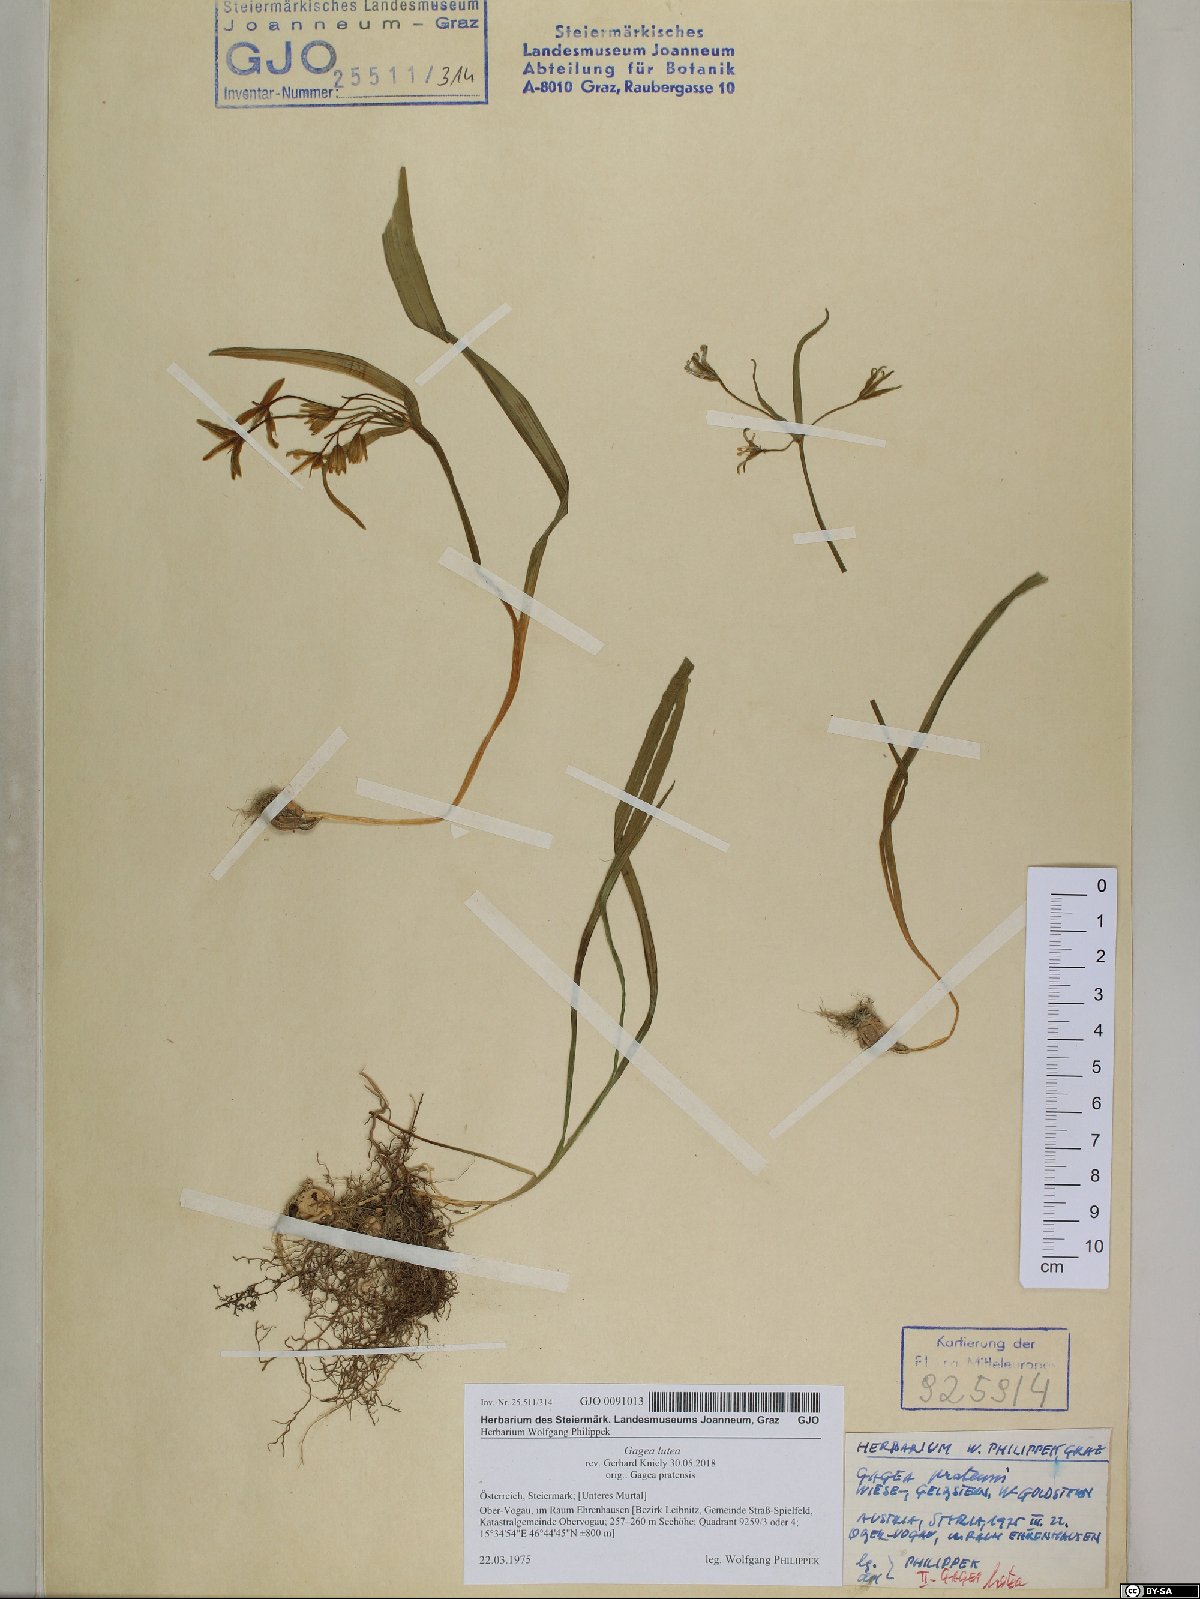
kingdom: Plantae
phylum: Tracheophyta
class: Liliopsida
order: Liliales
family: Liliaceae
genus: Gagea
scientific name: Gagea lutea
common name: Yellow star-of-bethlehem
